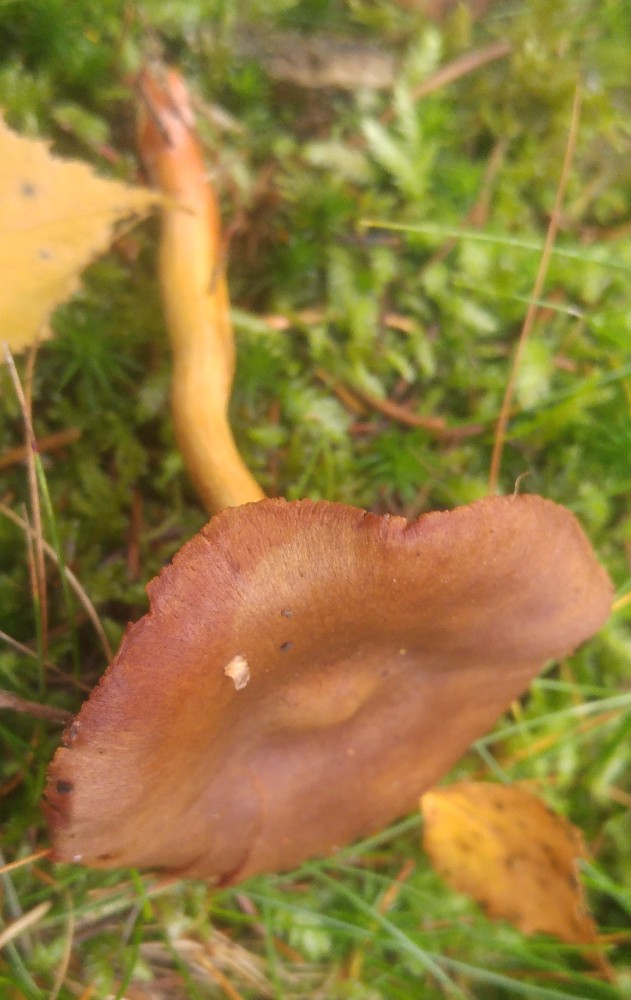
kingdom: Fungi
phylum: Basidiomycota
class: Agaricomycetes
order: Agaricales
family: Cortinariaceae
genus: Cortinarius
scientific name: Cortinarius
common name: cinnoberbladet slørhat
